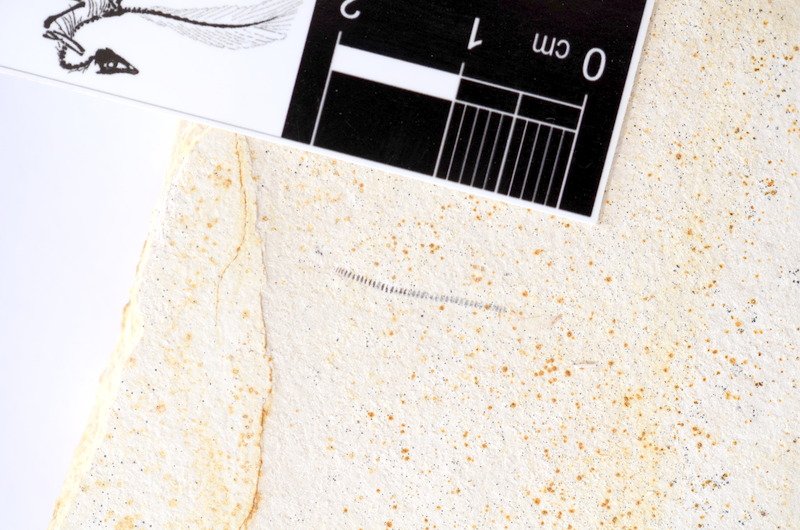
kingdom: Animalia
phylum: Chordata
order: Salmoniformes
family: Orthogonikleithridae
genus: Orthogonikleithrus
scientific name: Orthogonikleithrus hoelli
